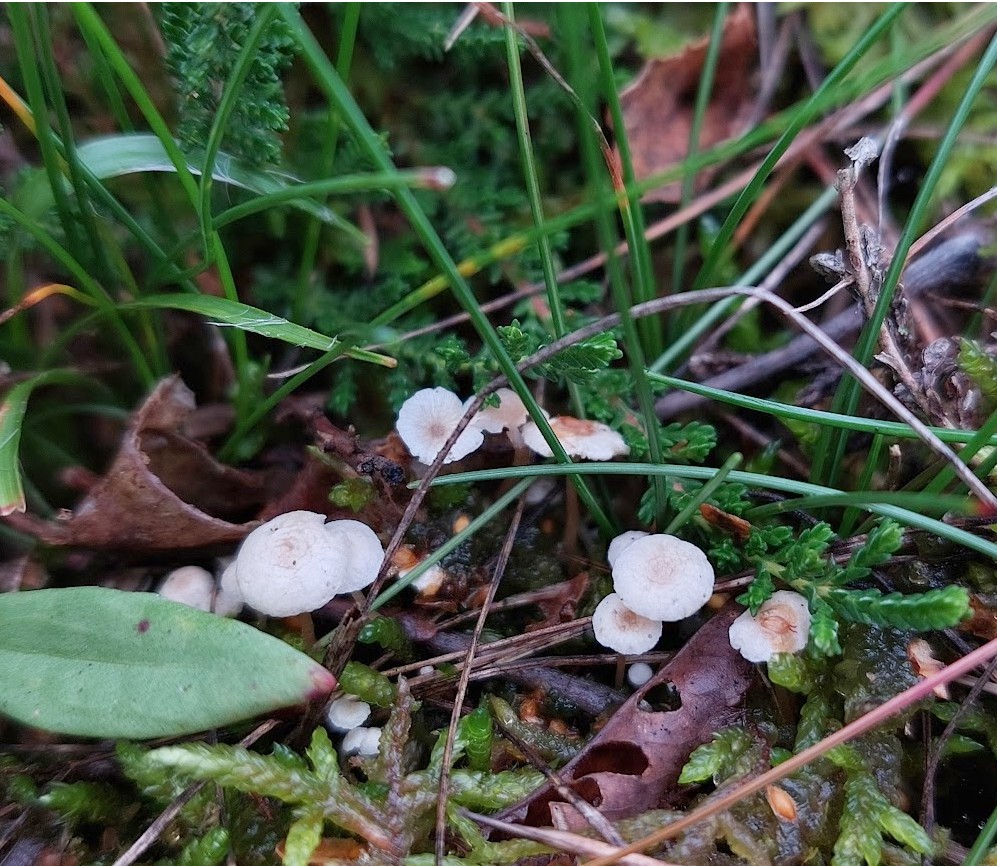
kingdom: Fungi
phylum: Basidiomycota
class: Agaricomycetes
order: Agaricales
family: Tricholomataceae
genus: Collybia
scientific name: Collybia cirrhata
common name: silke-lighat
